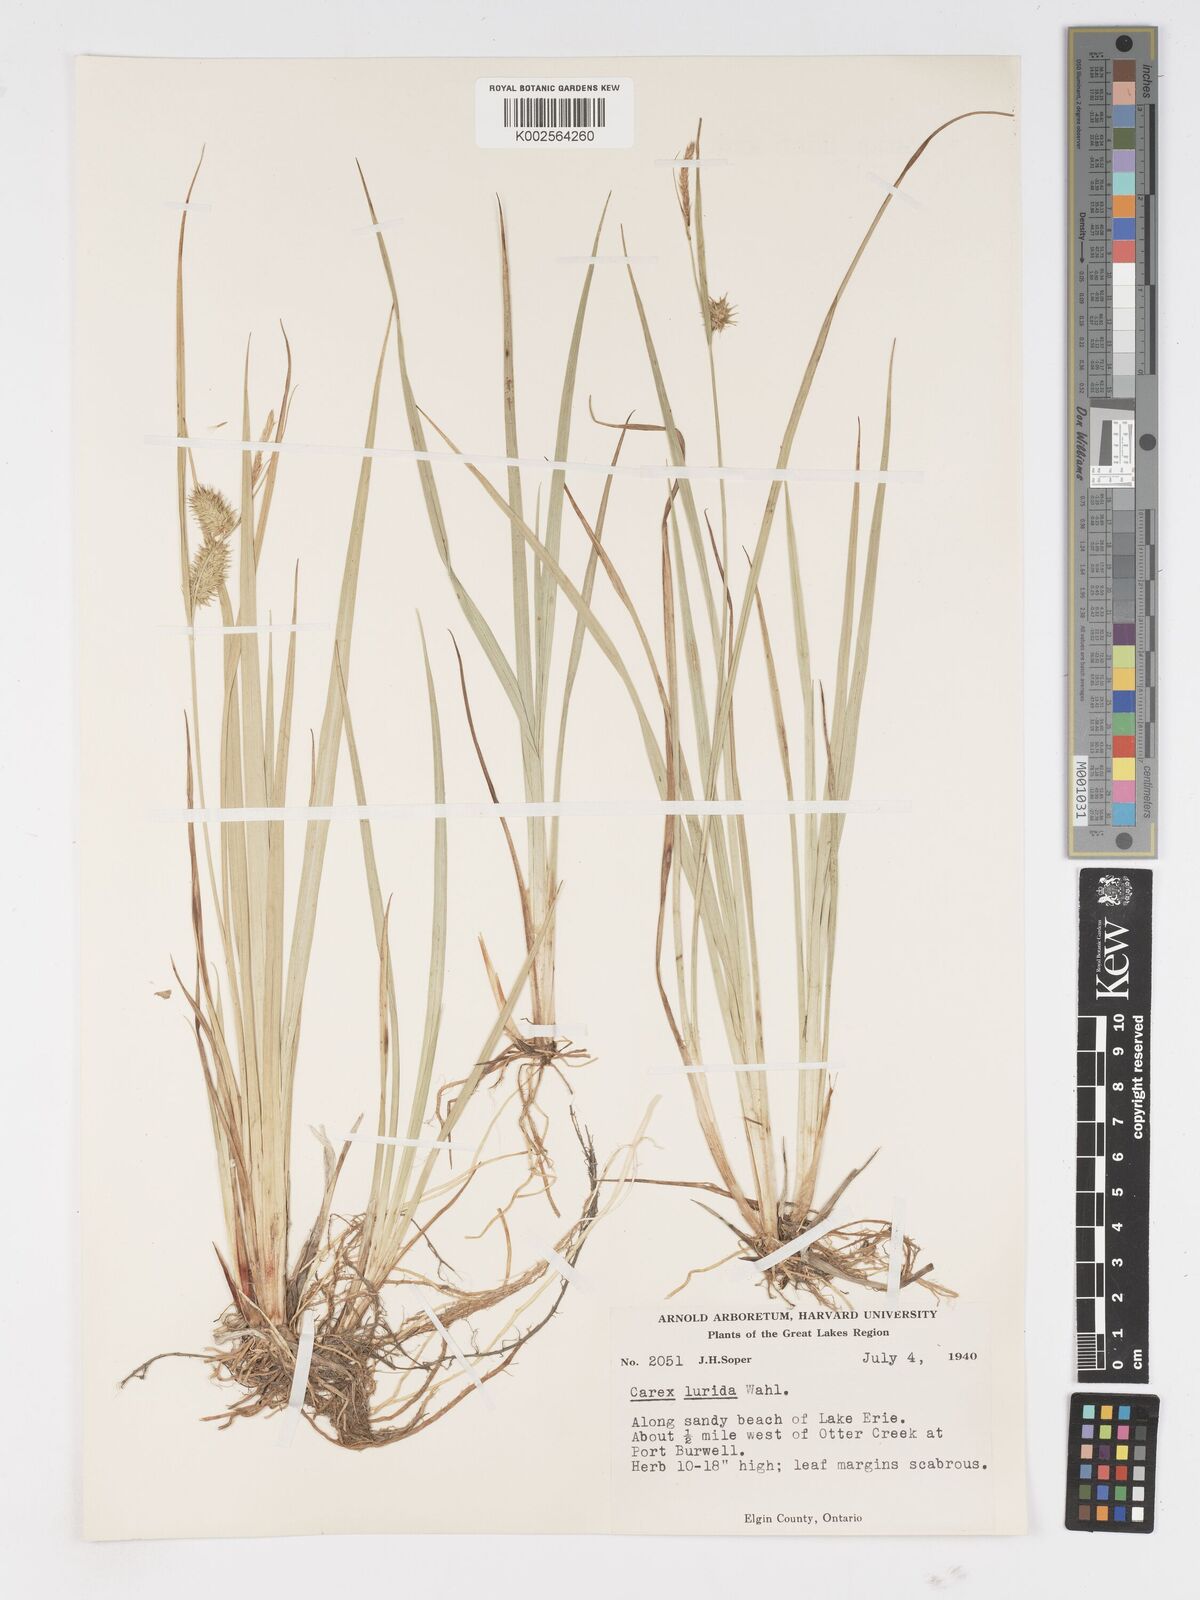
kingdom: Plantae
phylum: Tracheophyta
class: Liliopsida
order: Poales
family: Cyperaceae
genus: Carex
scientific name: Carex lurida
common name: Sallow sedge
